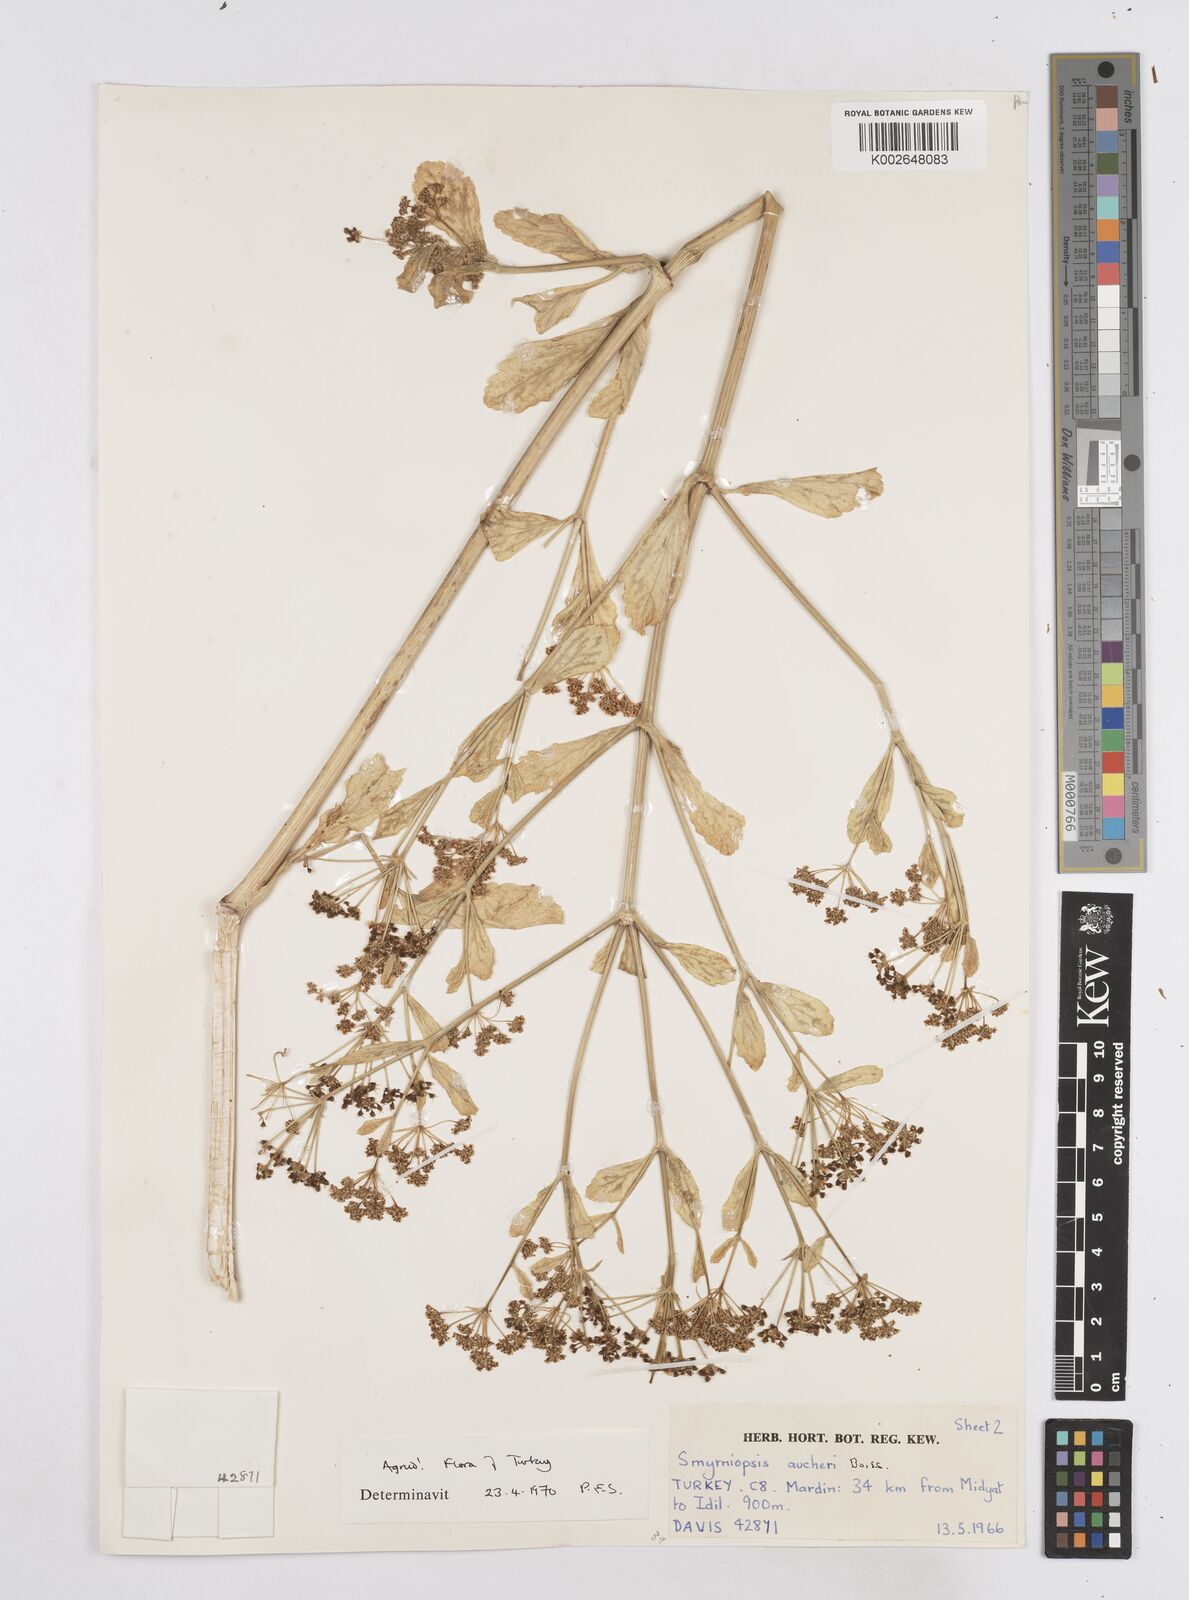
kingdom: Plantae
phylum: Tracheophyta
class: Magnoliopsida
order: Apiales
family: Apiaceae
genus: Smyrniopsis
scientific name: Smyrniopsis aucheri
